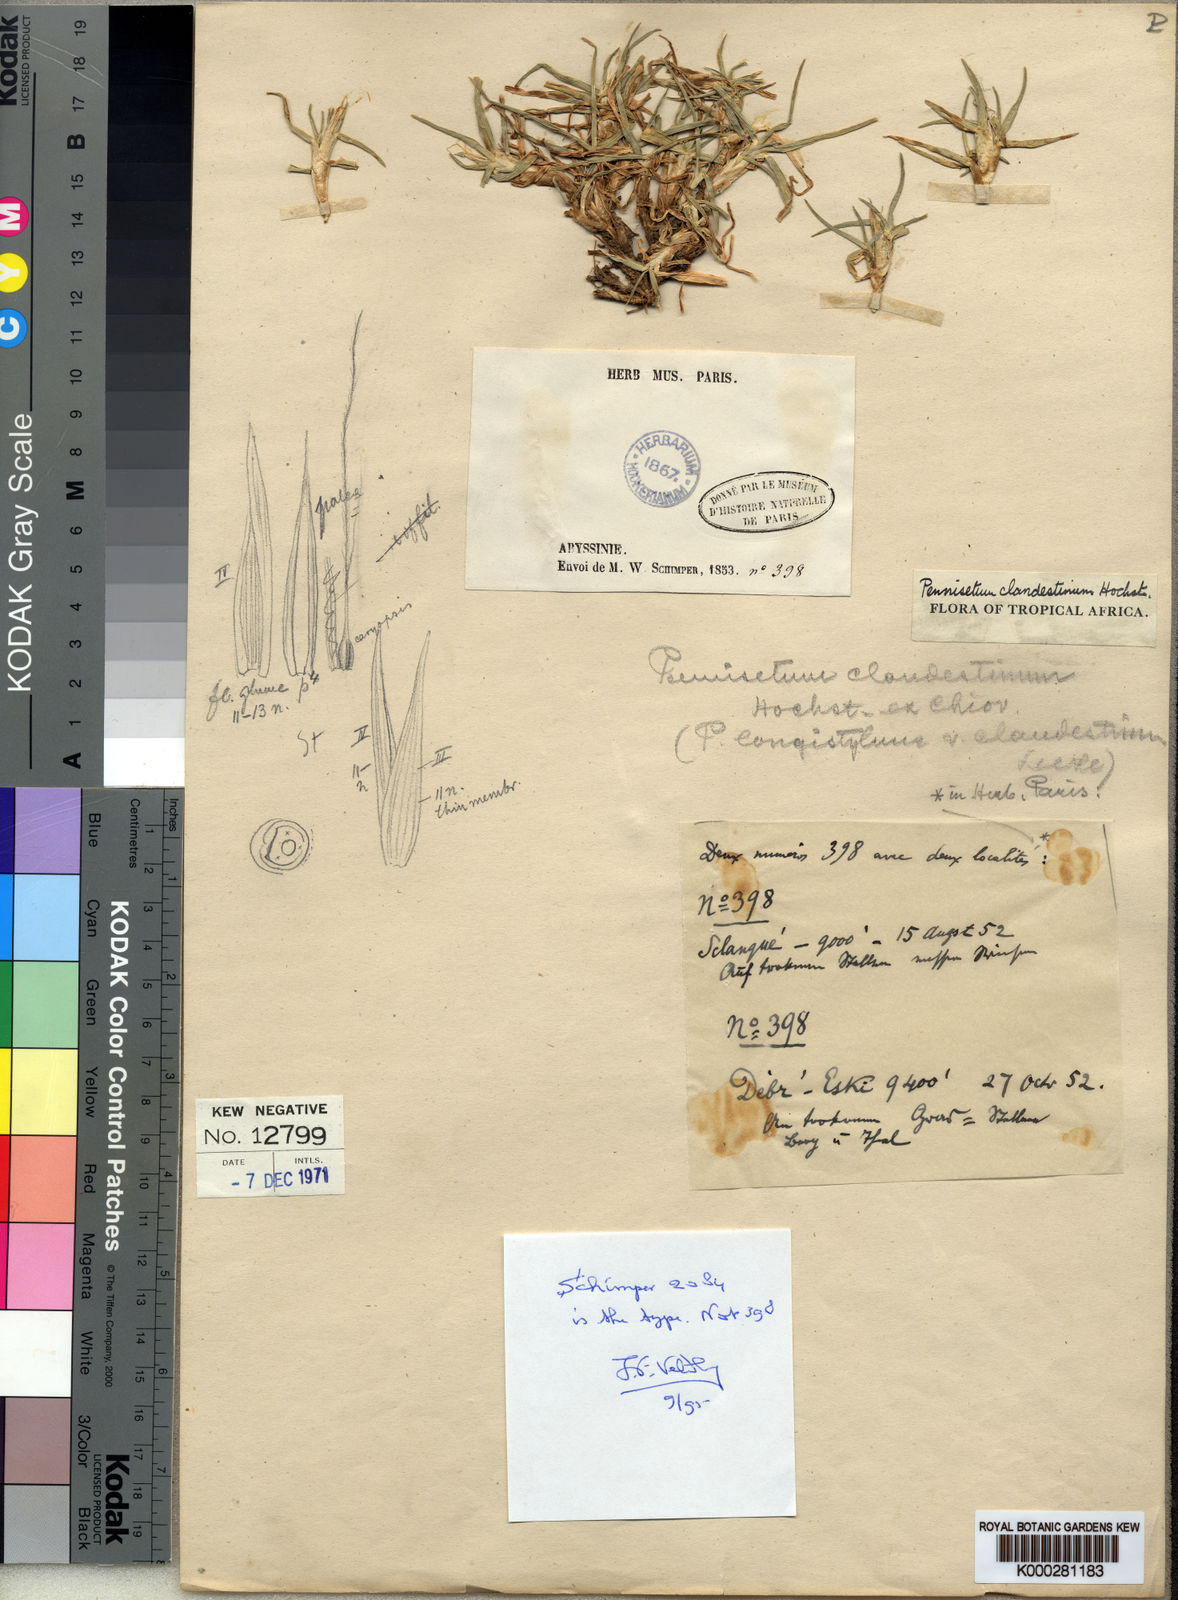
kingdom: Plantae
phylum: Tracheophyta
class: Liliopsida
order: Poales
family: Poaceae
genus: Cenchrus
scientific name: Cenchrus clandestinus
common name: Kikuyugrass
